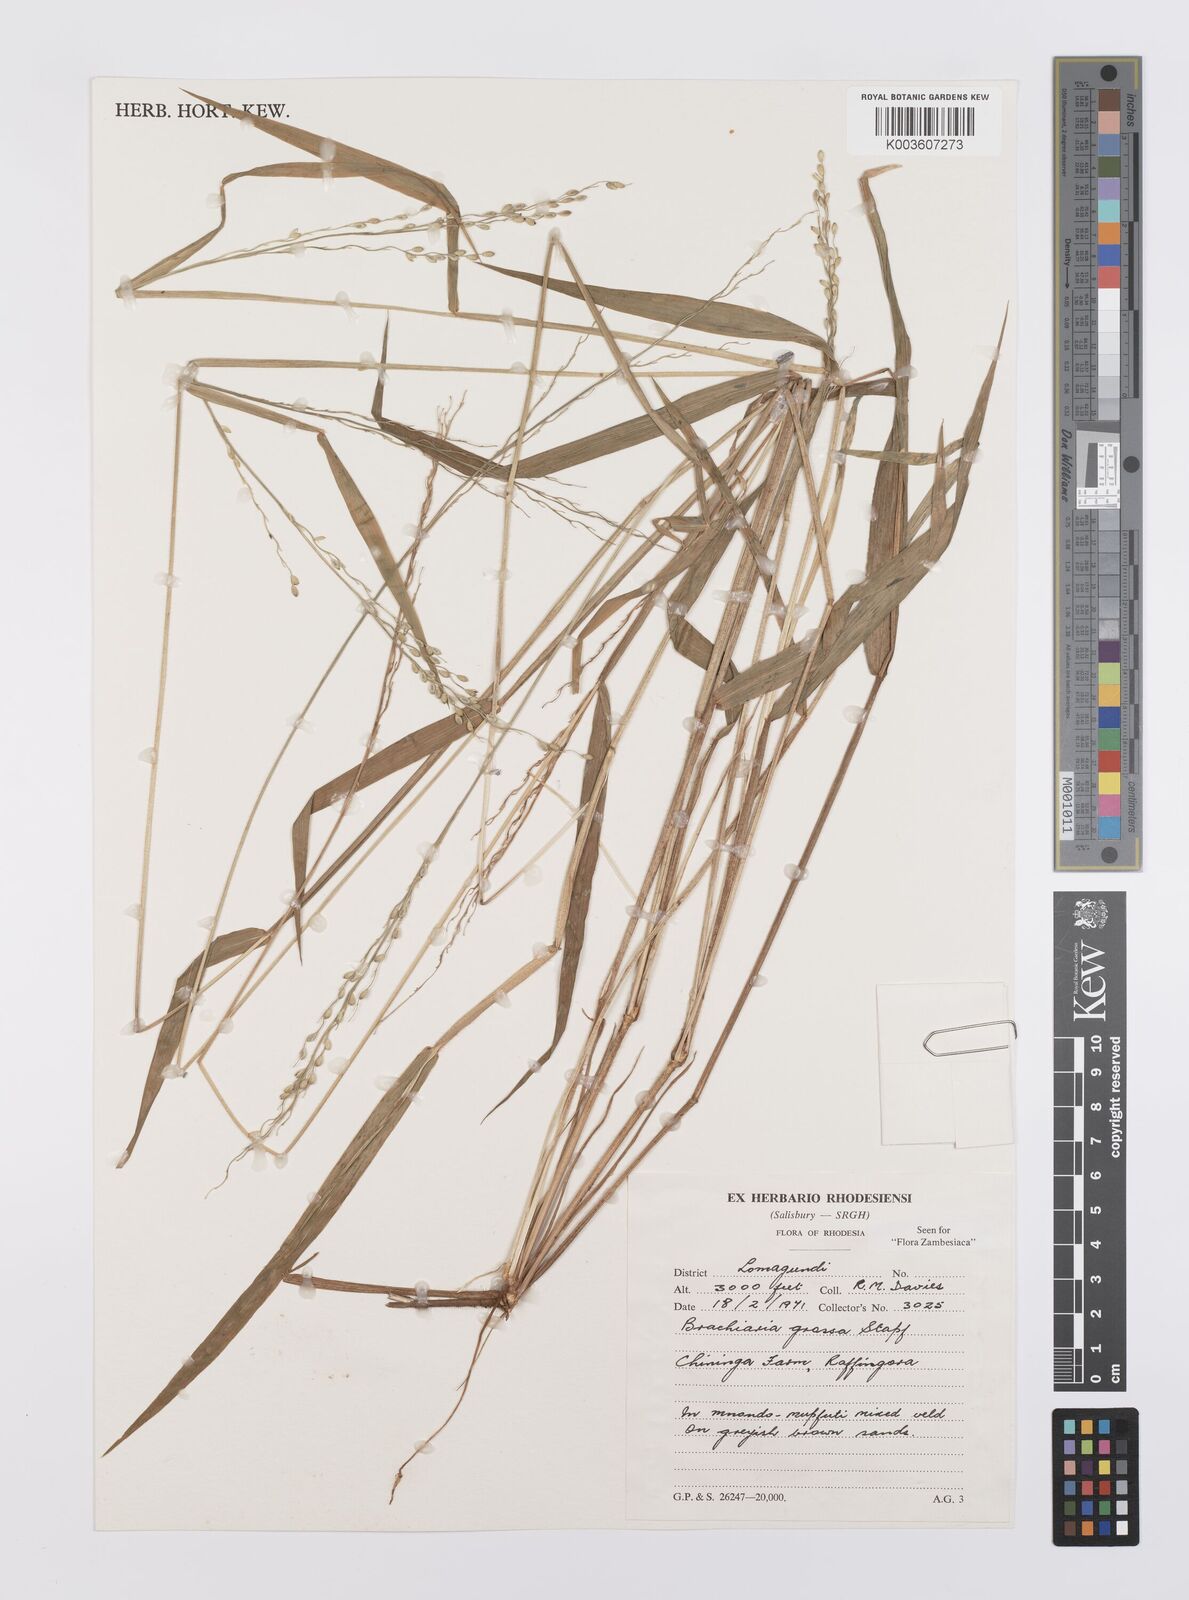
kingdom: Plantae
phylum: Tracheophyta
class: Liliopsida
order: Poales
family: Poaceae
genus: Urochloa
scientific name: Urochloa Brachiaria grossa
